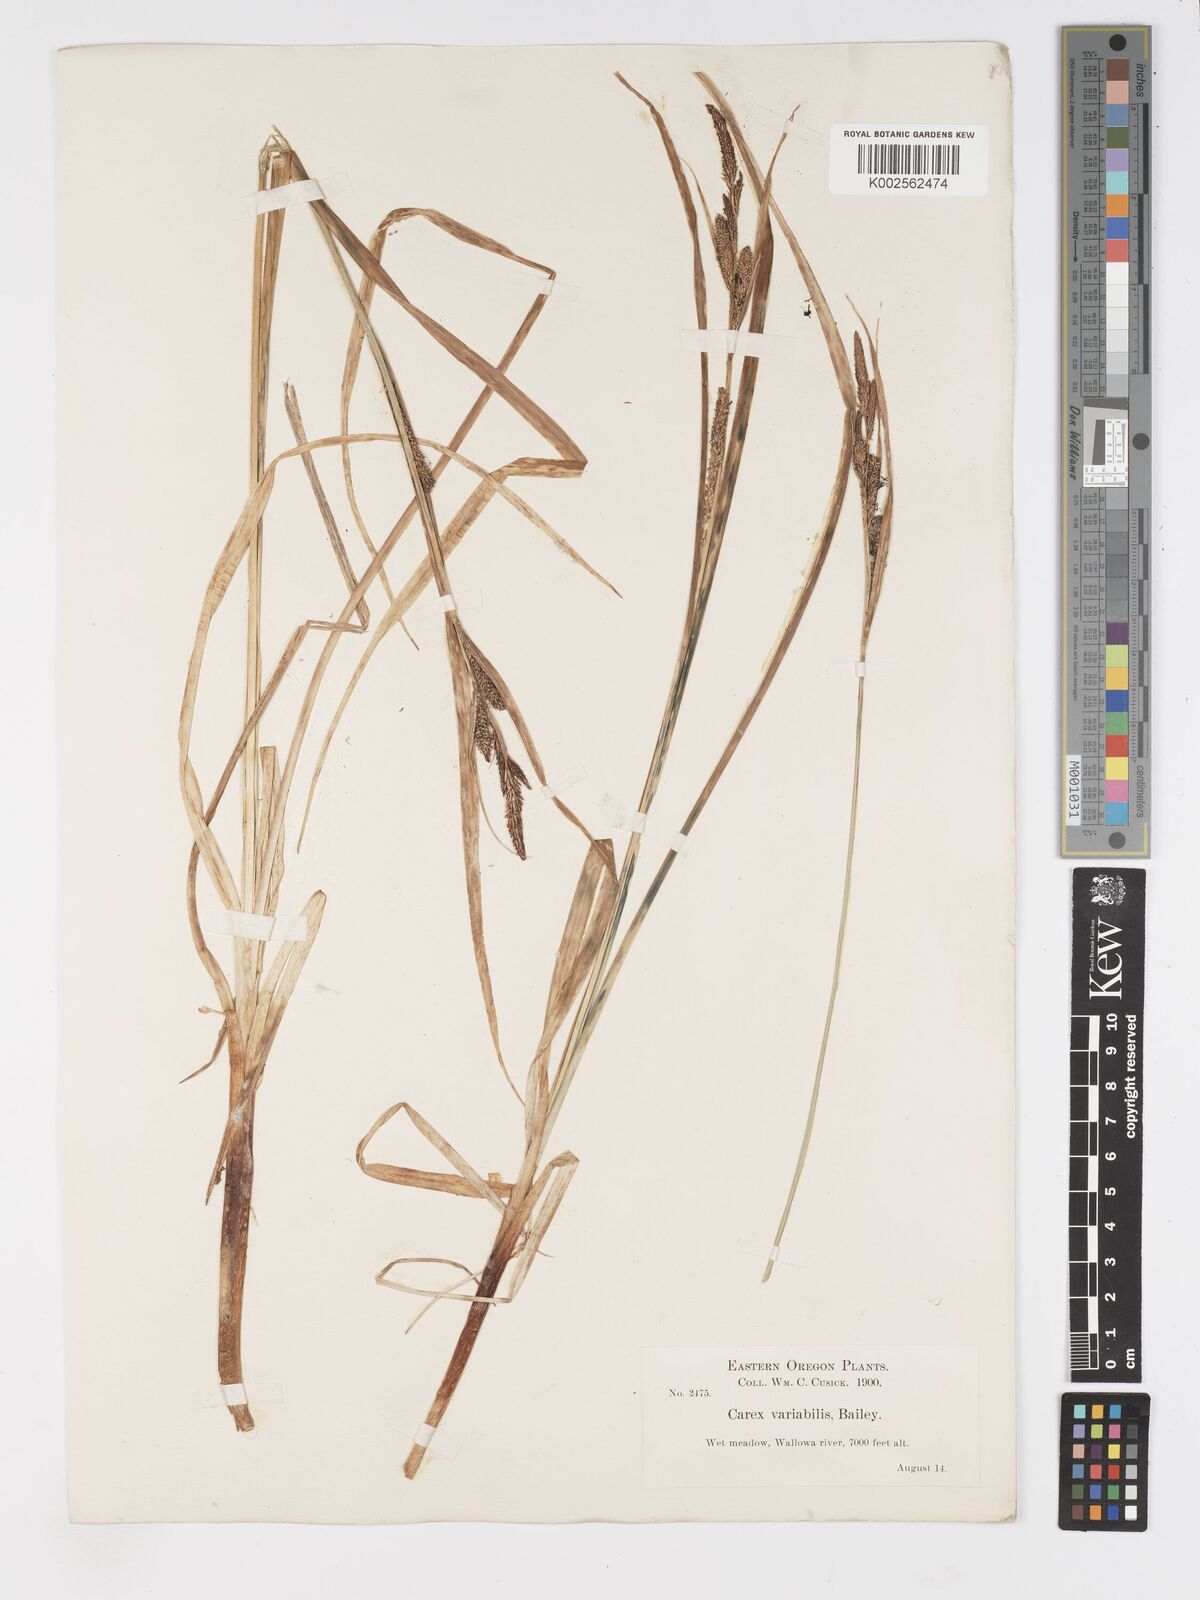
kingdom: Plantae
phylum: Tracheophyta
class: Liliopsida
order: Poales
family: Cyperaceae
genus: Carex
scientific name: Carex
